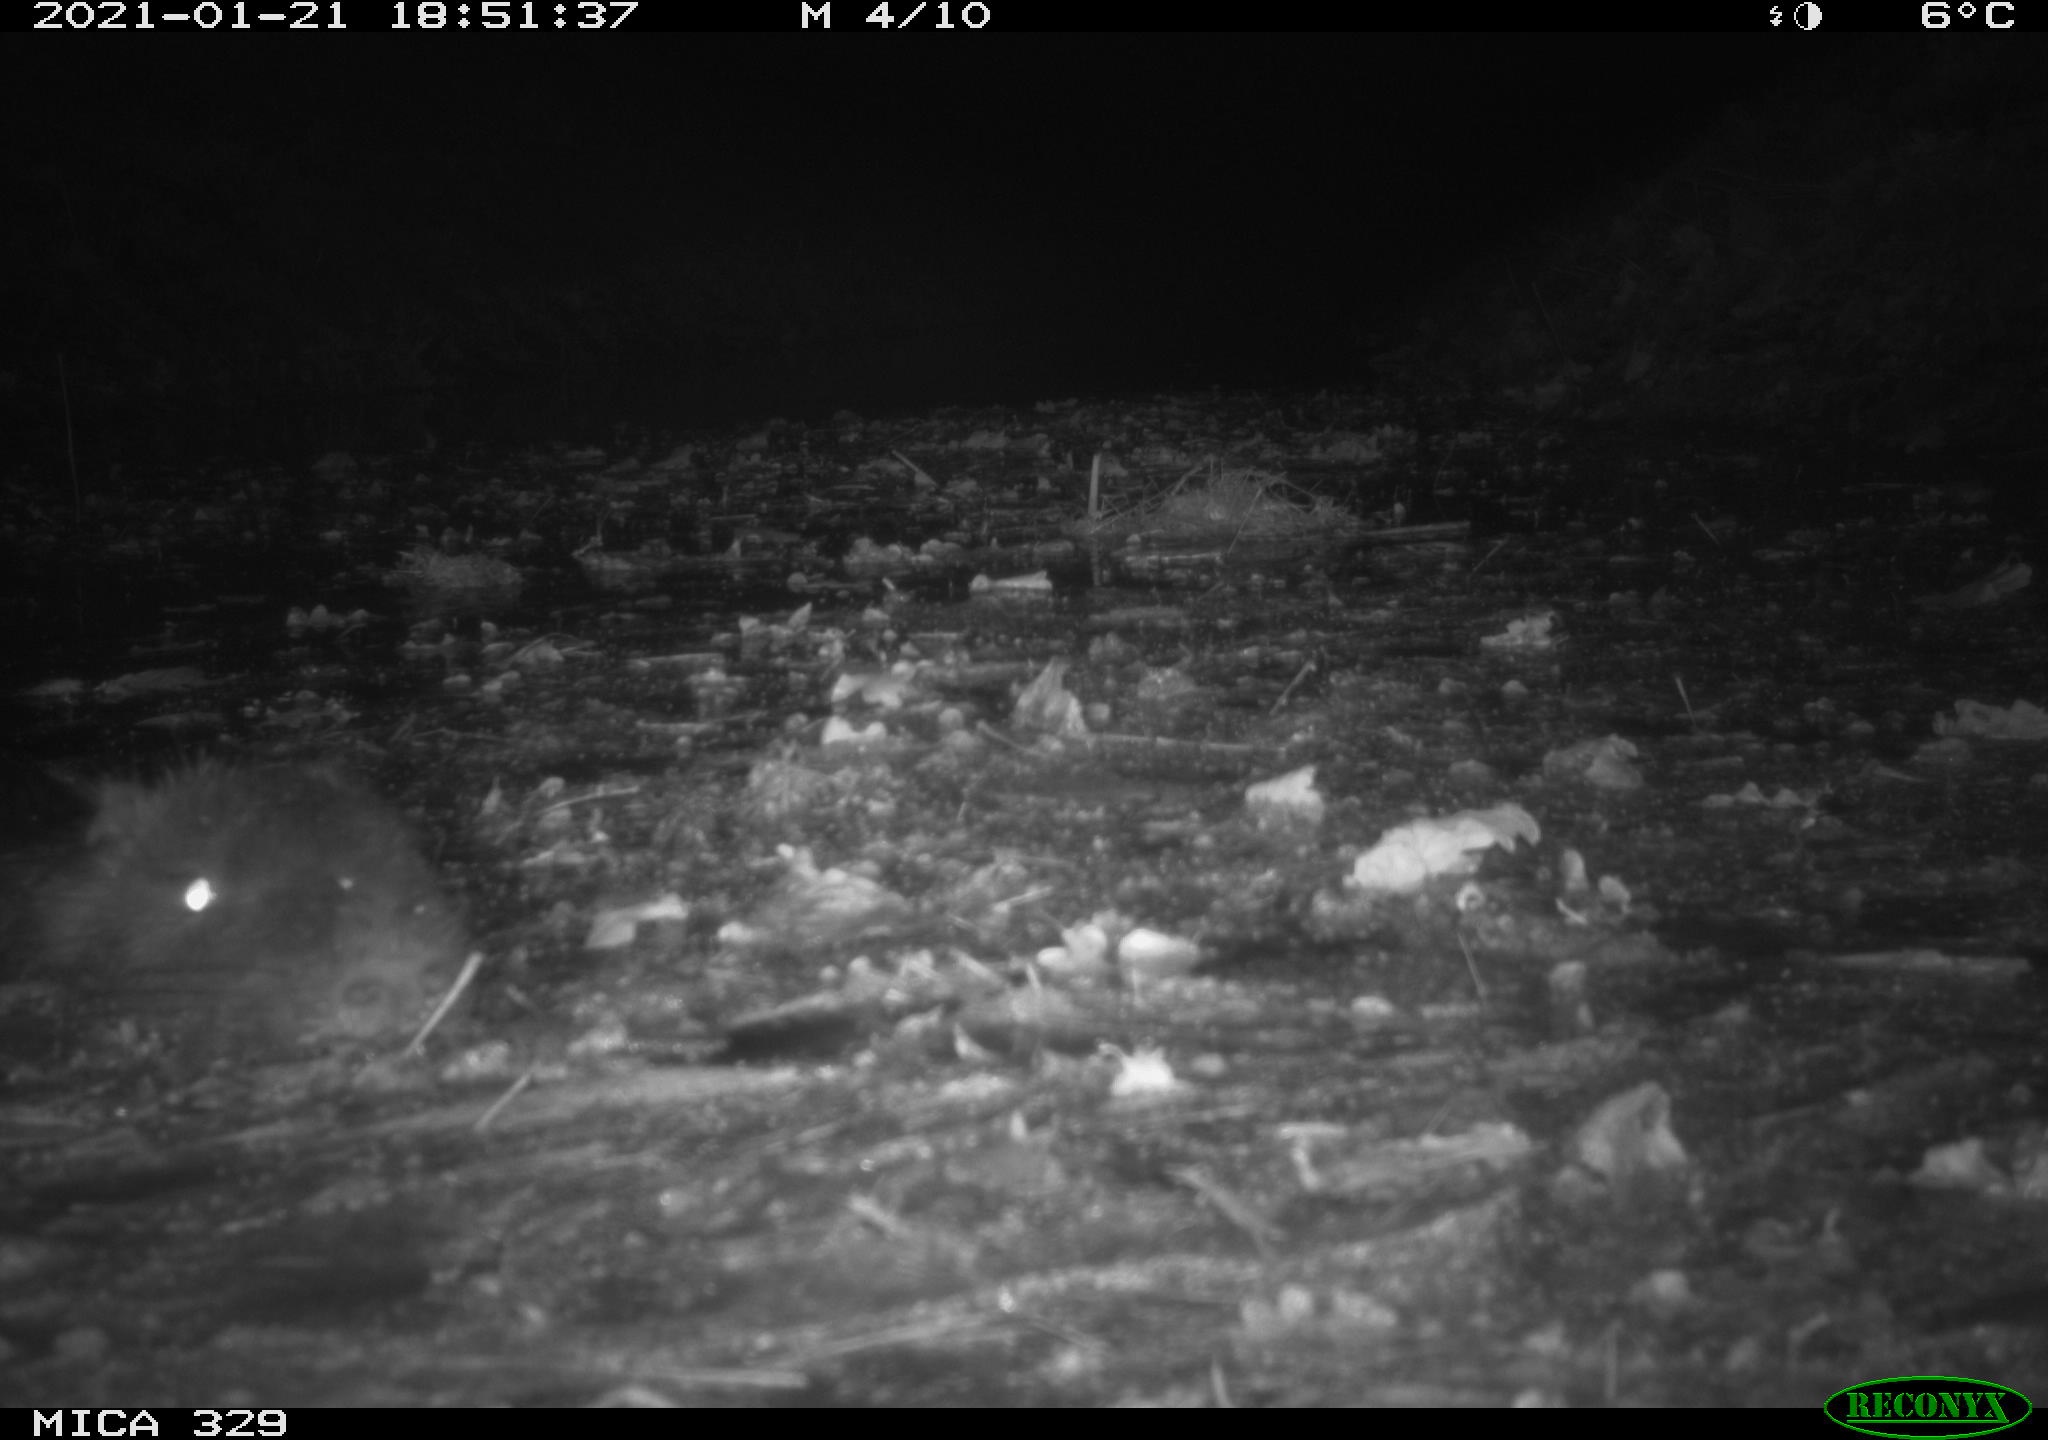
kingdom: Animalia
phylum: Chordata
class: Mammalia
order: Rodentia
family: Myocastoridae
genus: Myocastor
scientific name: Myocastor coypus
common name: Coypu
